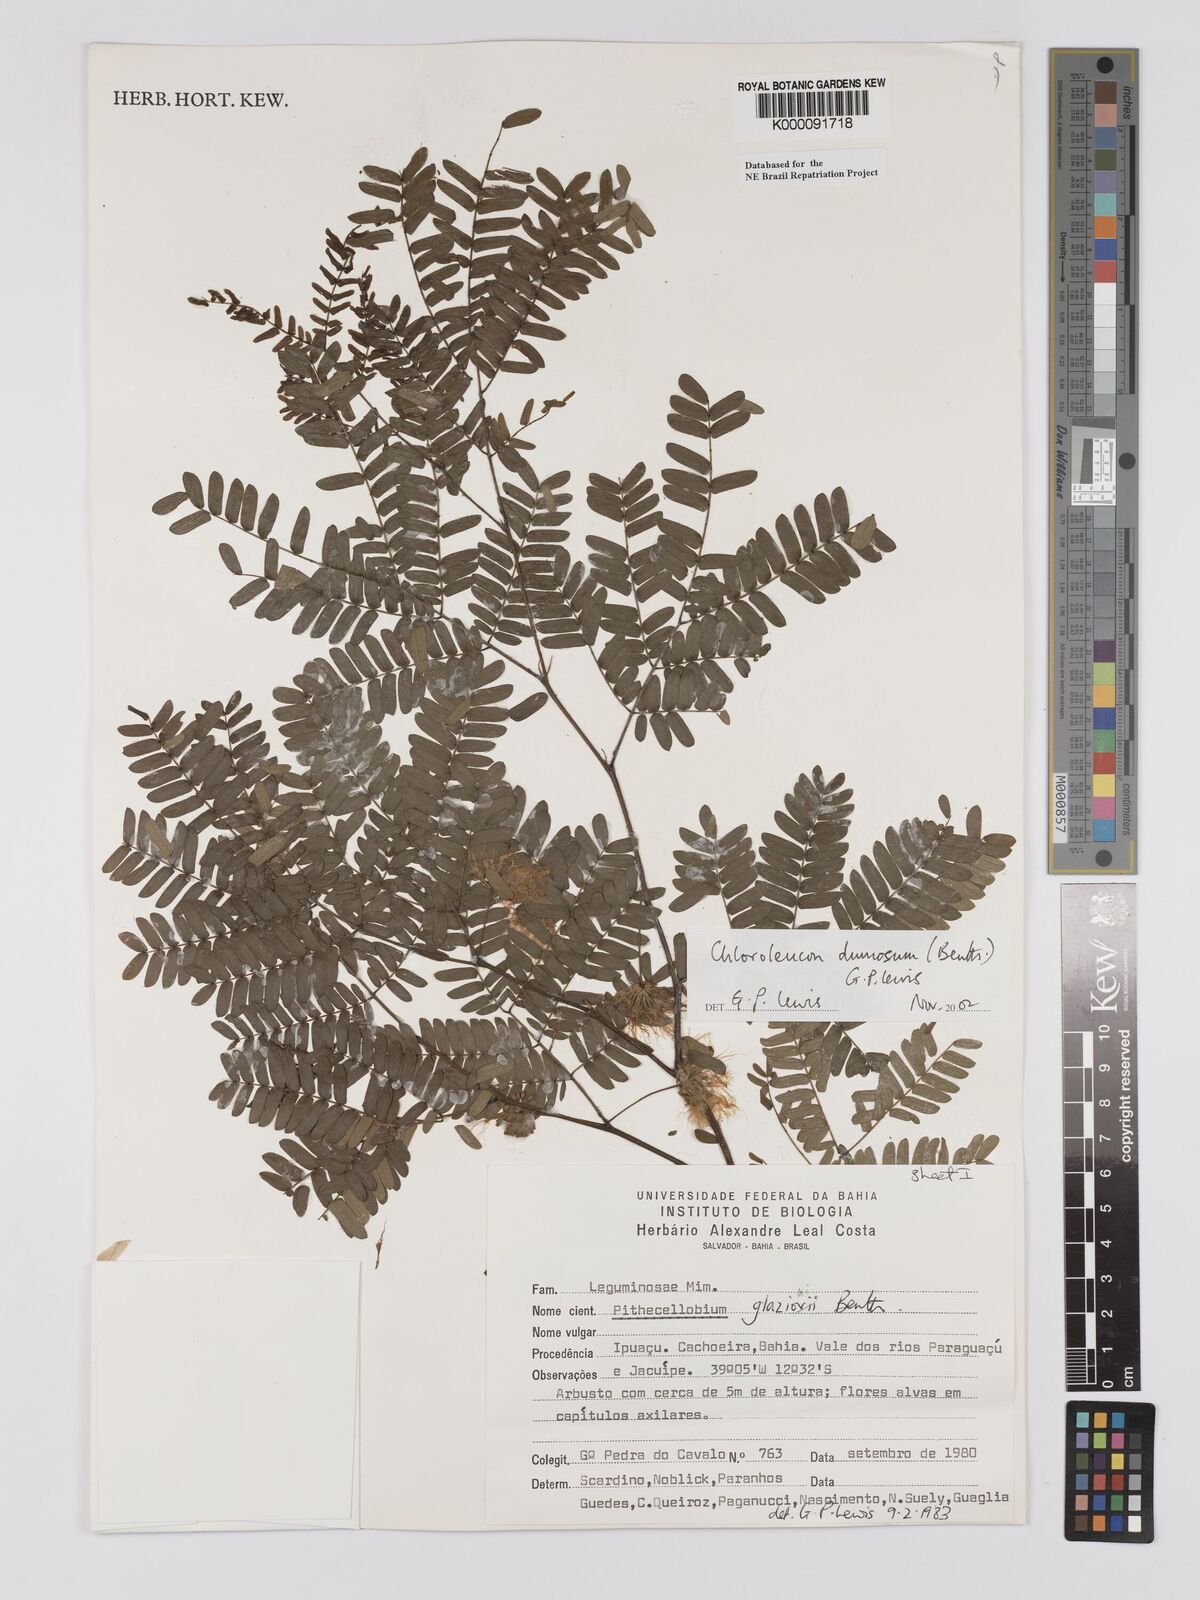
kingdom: Plantae
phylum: Tracheophyta
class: Magnoliopsida
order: Fabales
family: Fabaceae
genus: Chloroleucon
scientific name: Chloroleucon dumosum
